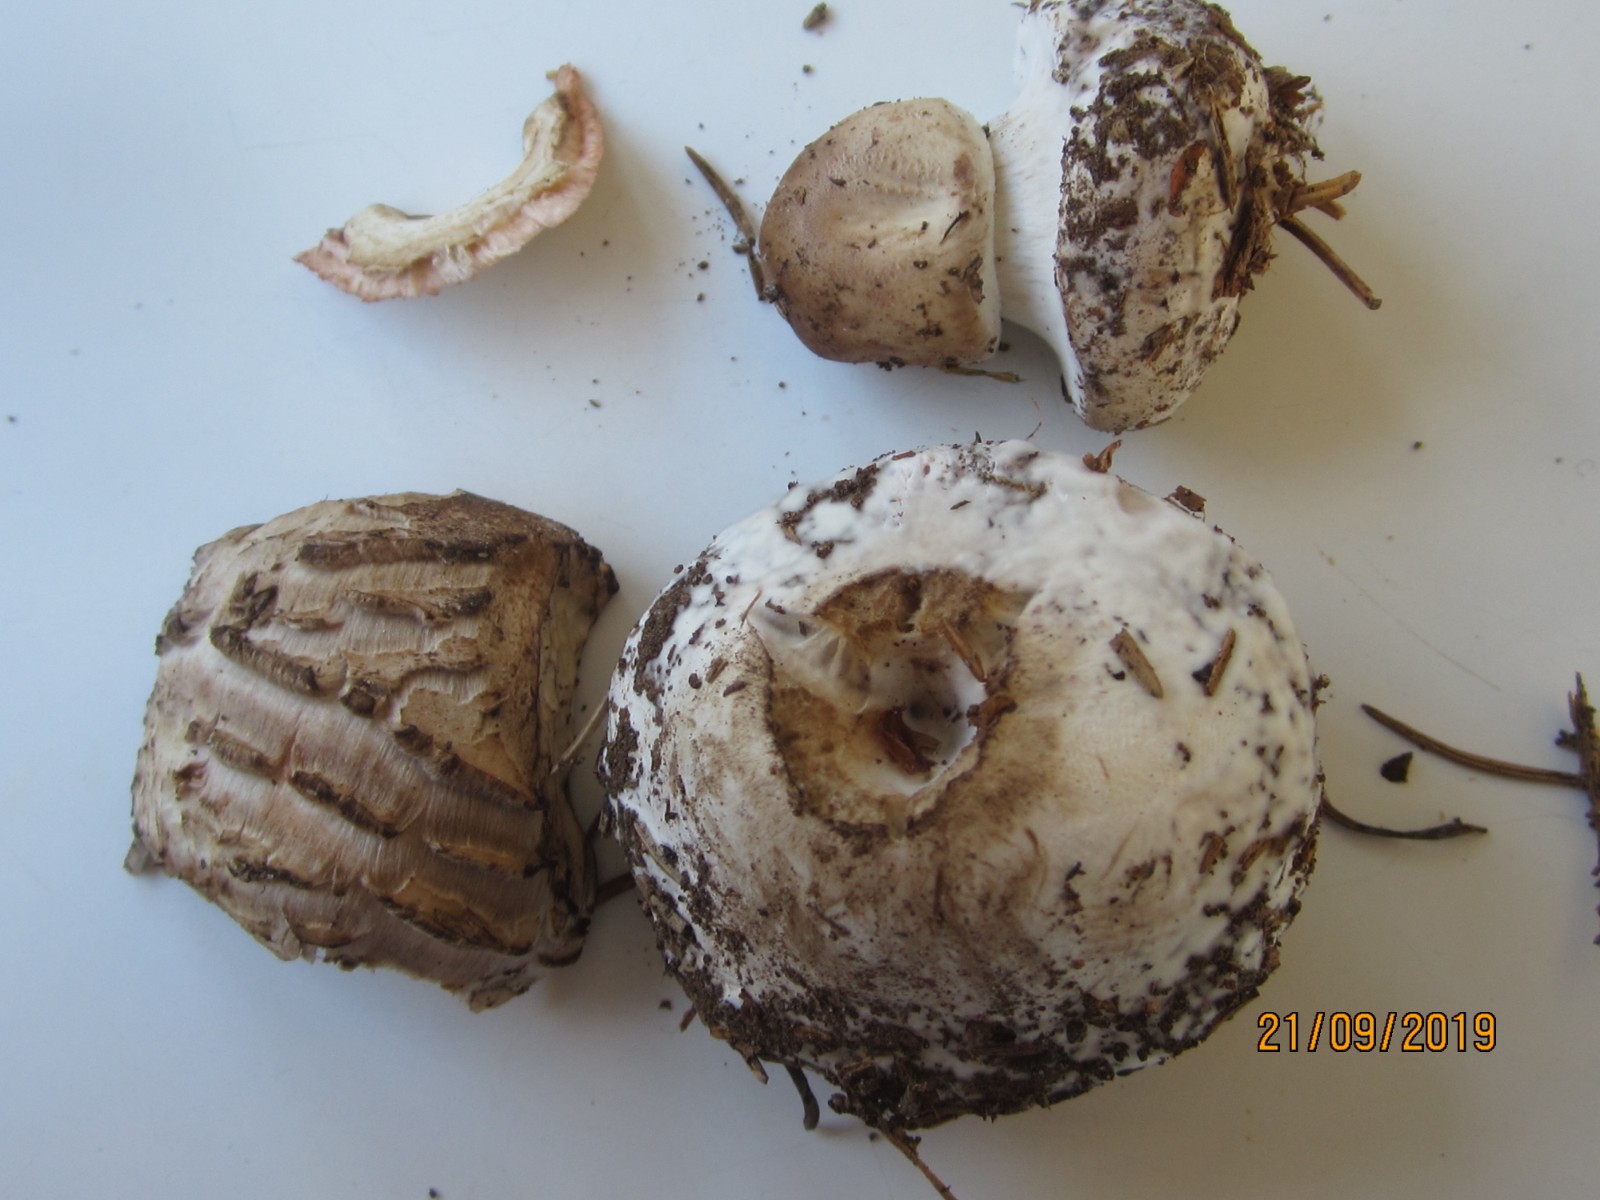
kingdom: Fungi
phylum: Basidiomycota
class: Agaricomycetes
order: Agaricales
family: Agaricaceae
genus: Chlorophyllum
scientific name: Chlorophyllum
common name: rabarberhat
